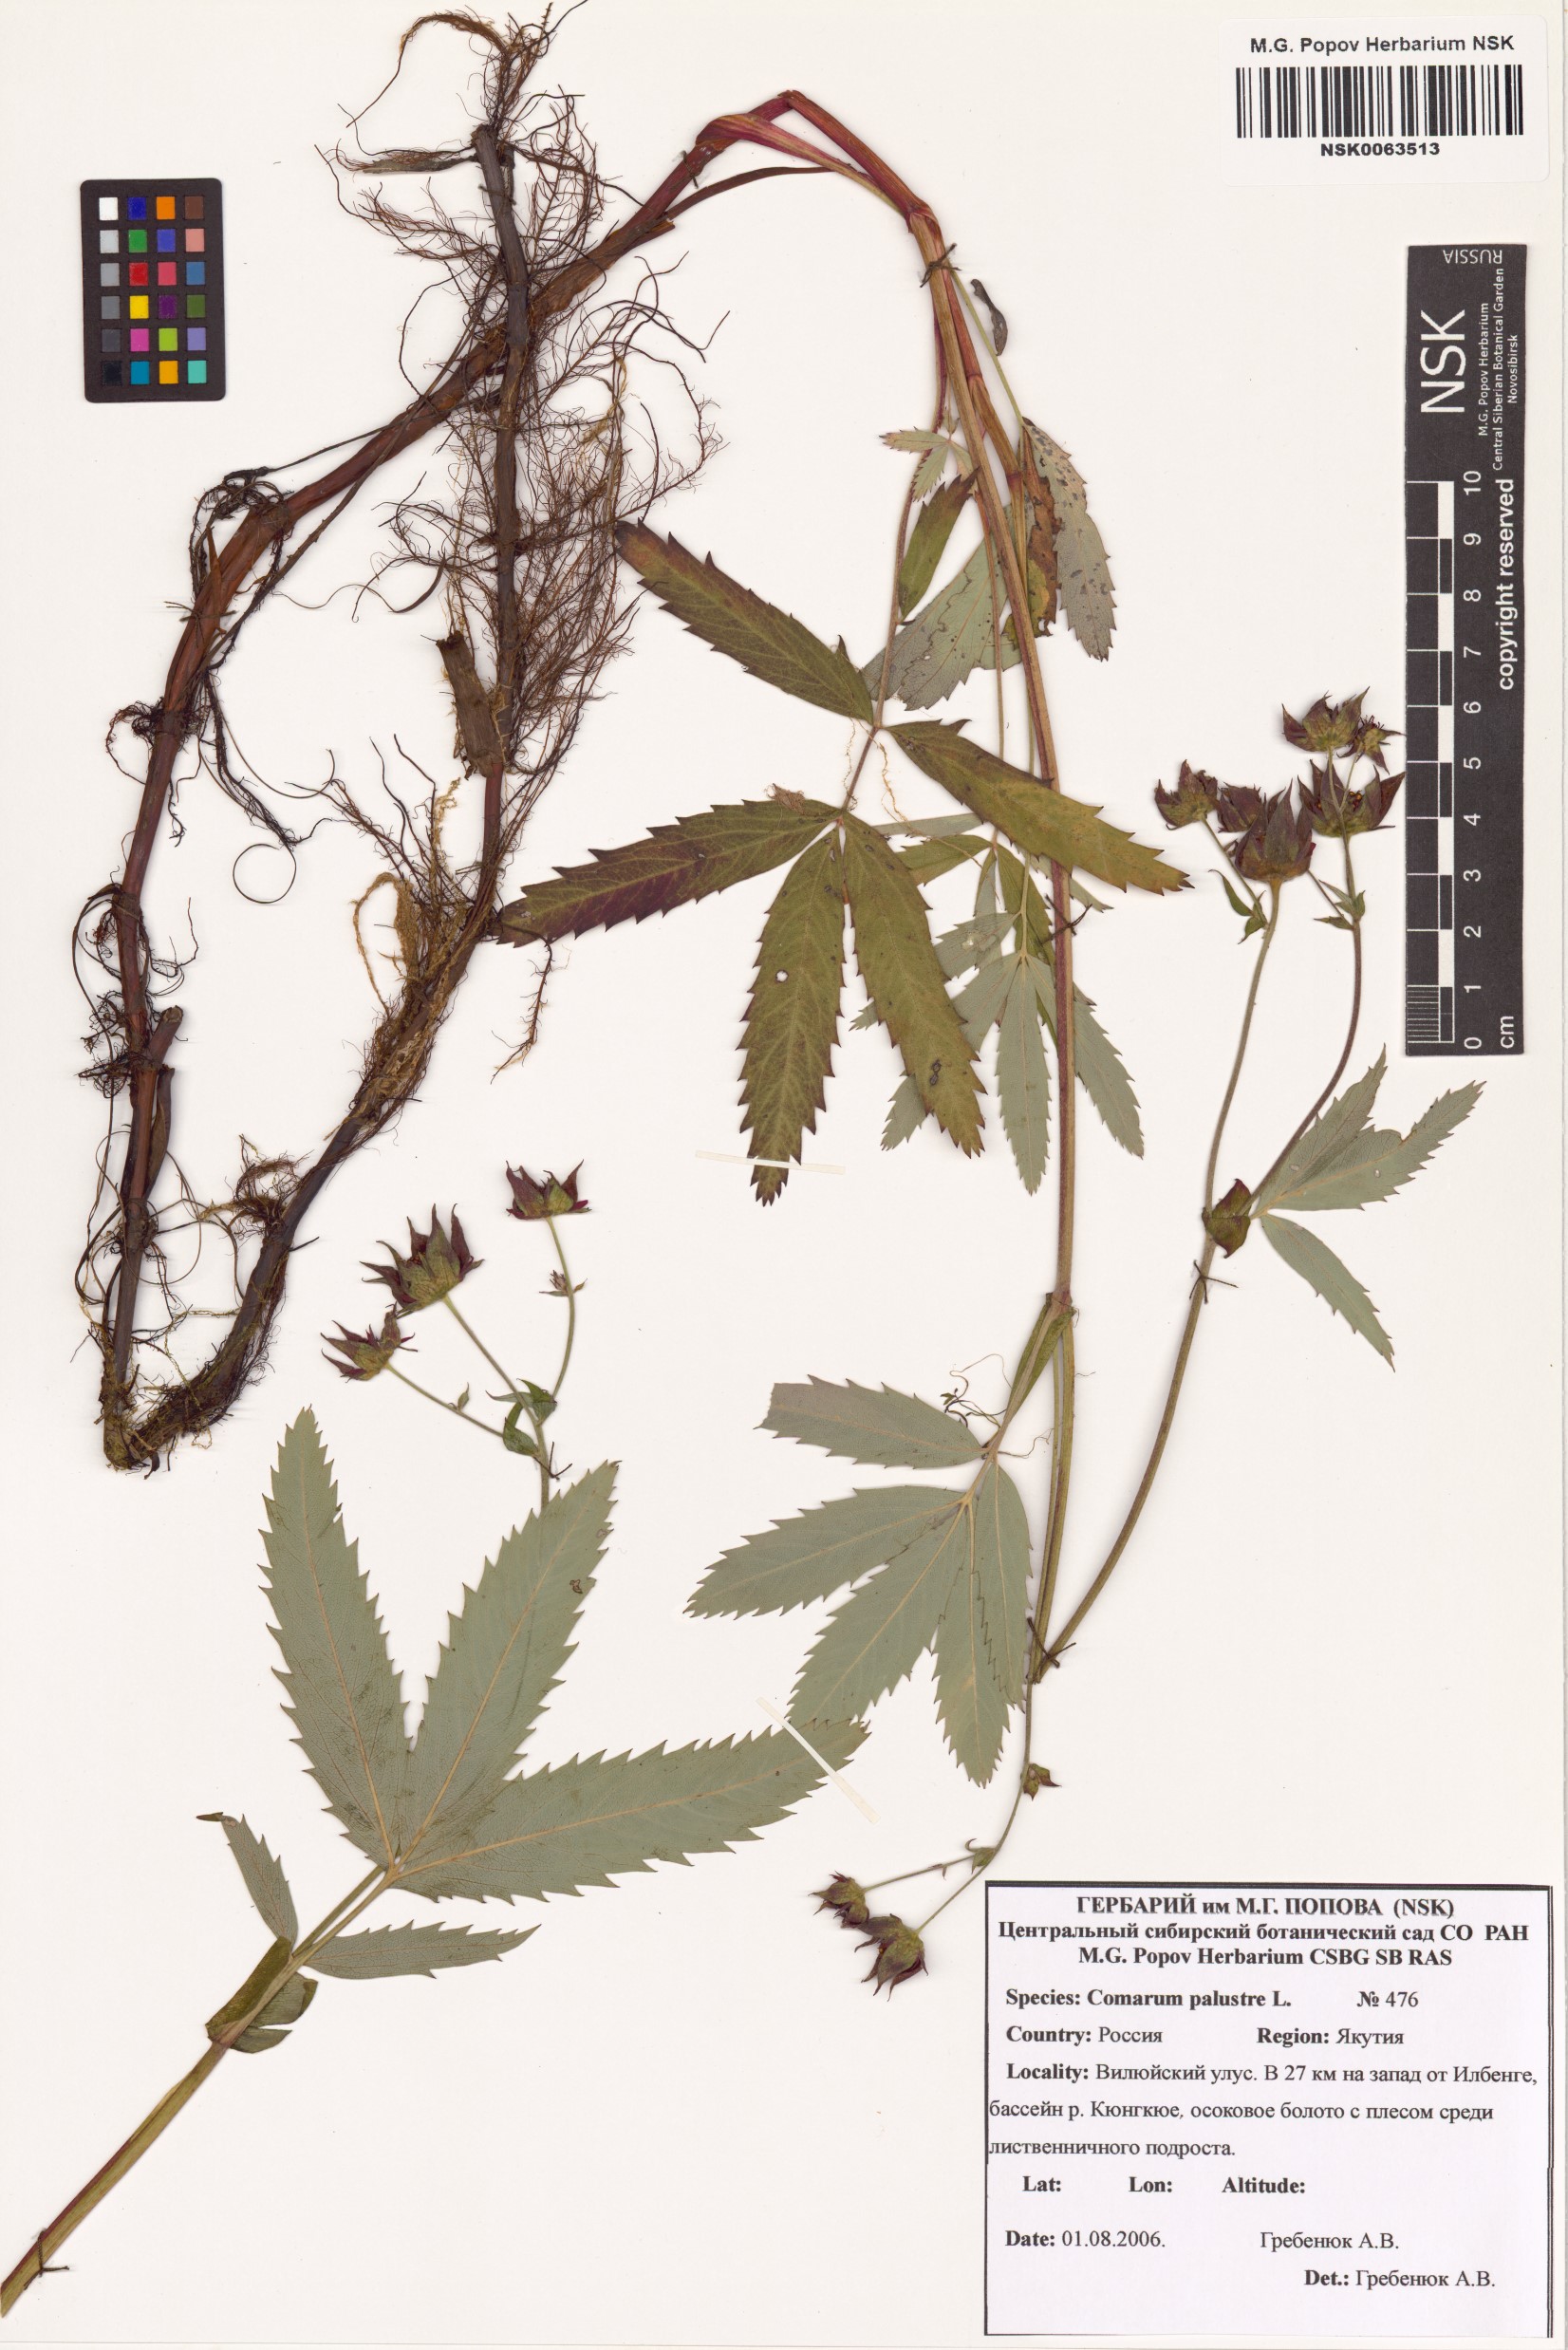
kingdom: Plantae
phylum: Tracheophyta
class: Magnoliopsida
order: Rosales
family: Rosaceae
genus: Comarum
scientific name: Comarum palustre
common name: Marsh cinquefoil
